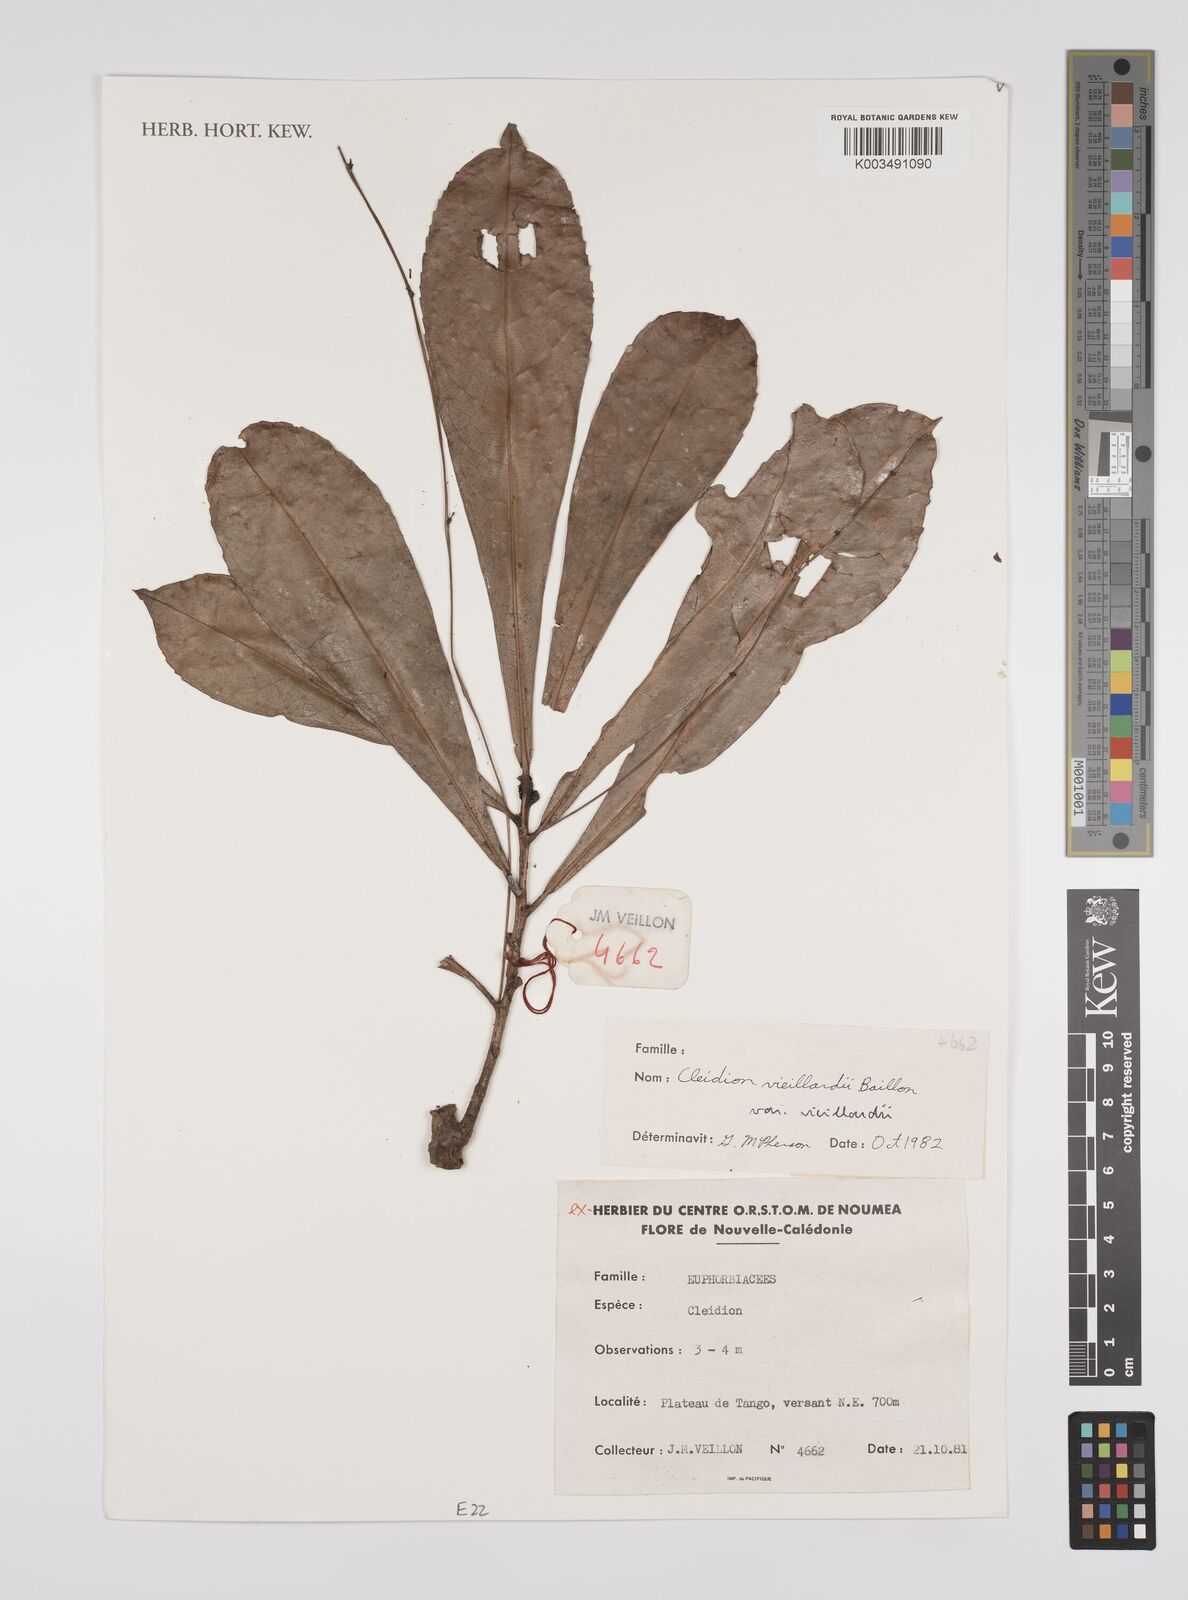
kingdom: Plantae
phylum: Tracheophyta
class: Magnoliopsida
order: Malpighiales
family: Euphorbiaceae
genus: Cleidion
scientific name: Cleidion vieillardii
